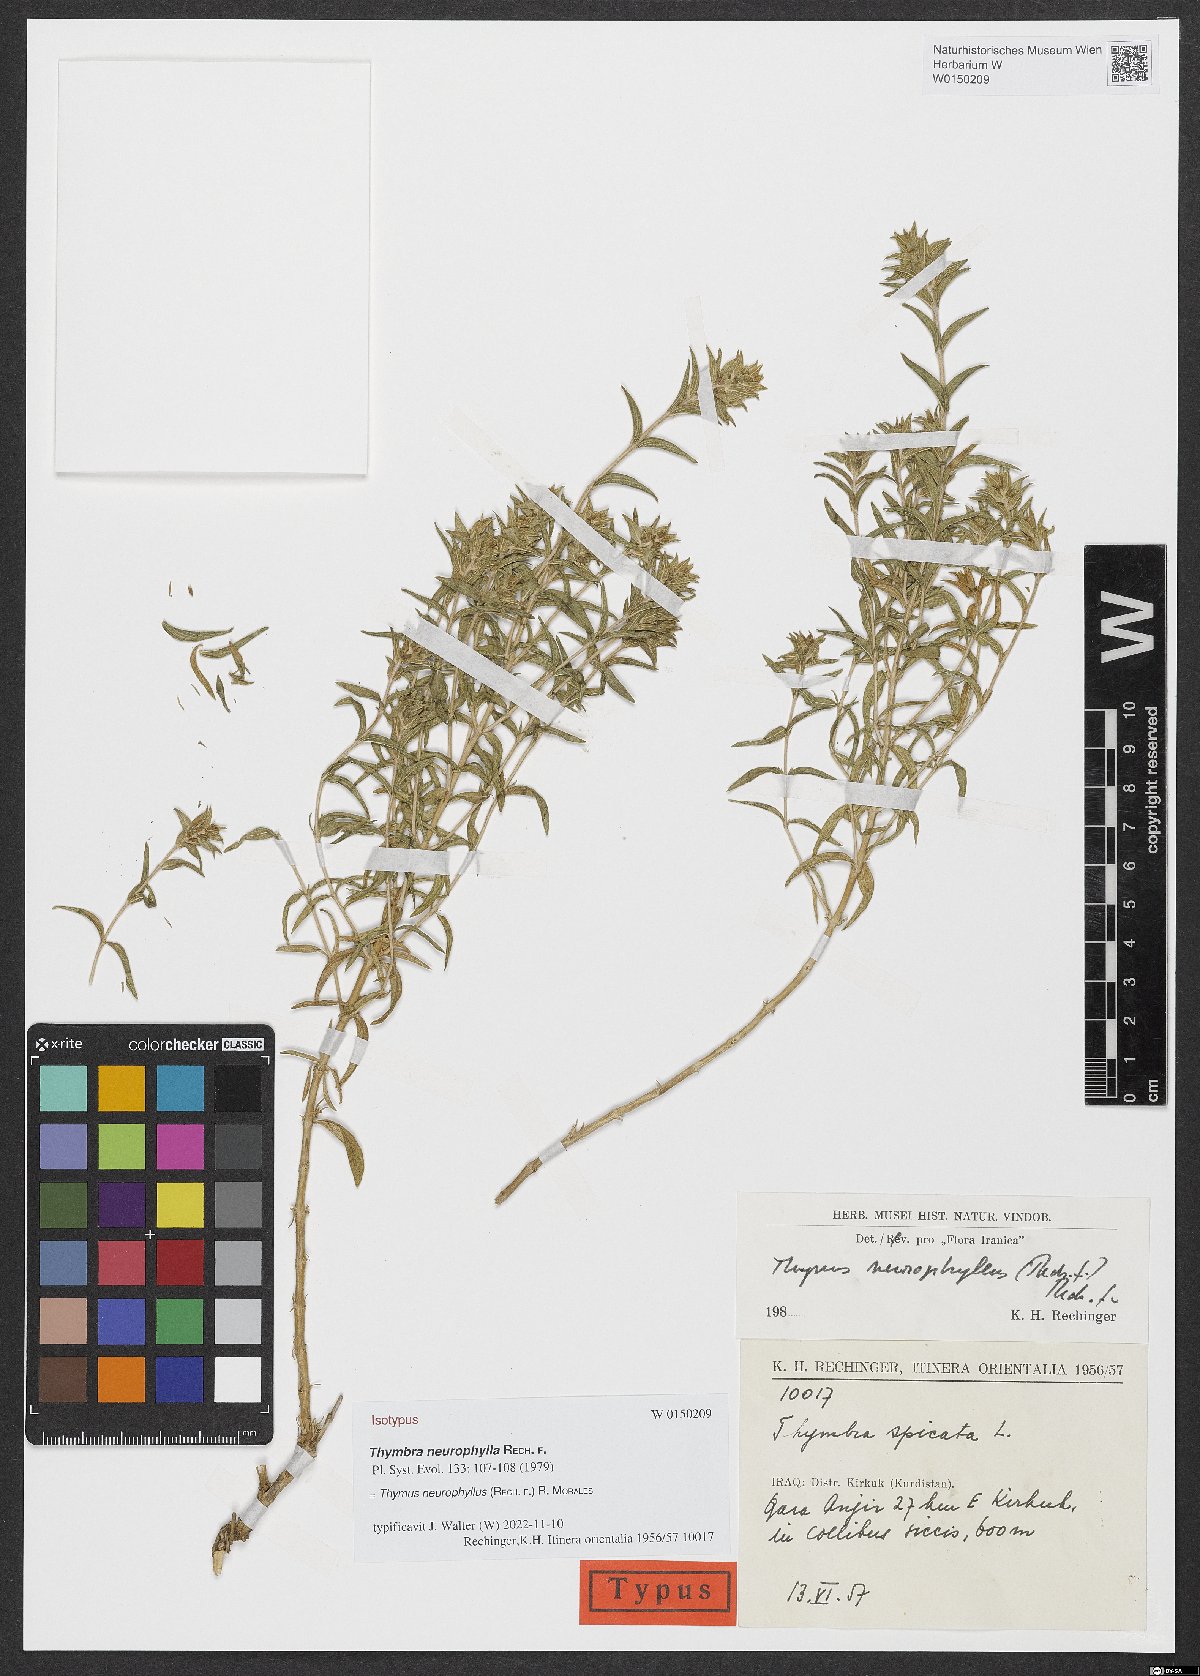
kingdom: Plantae
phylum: Tracheophyta
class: Magnoliopsida
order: Lamiales
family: Lamiaceae
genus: Thymus
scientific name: Thymus neurophyllus
